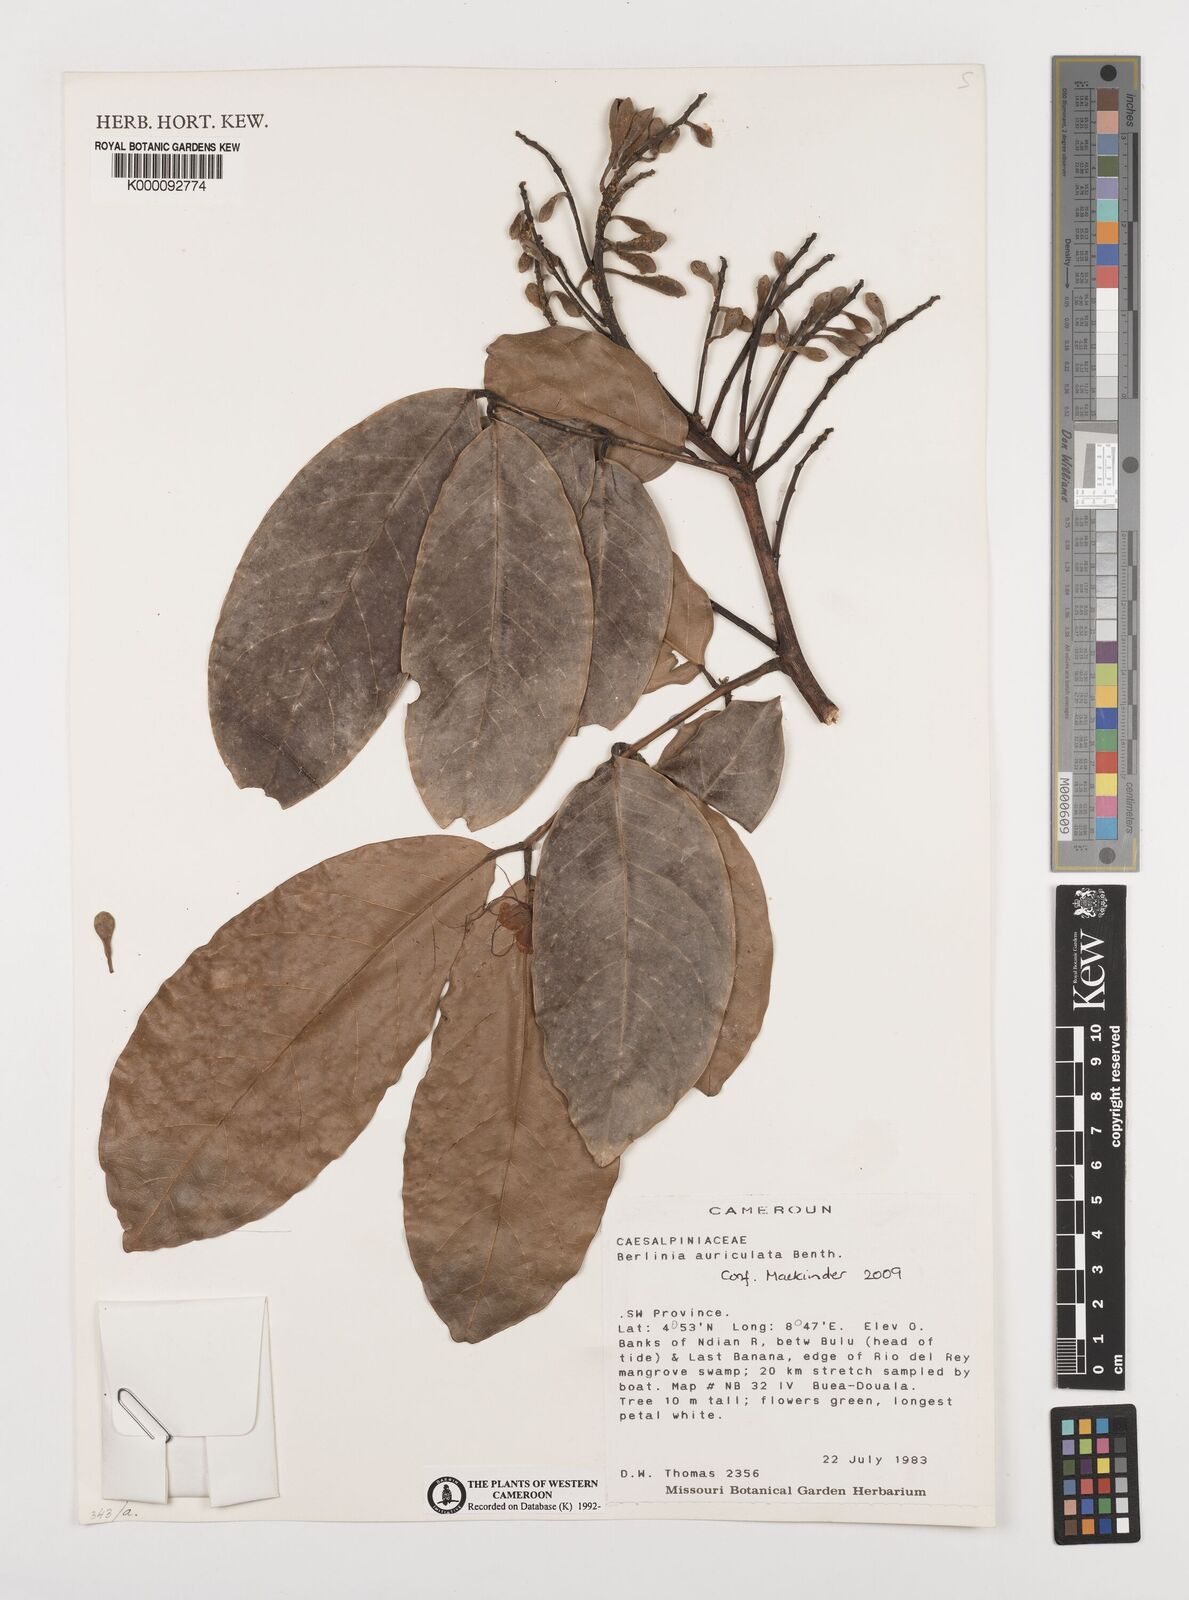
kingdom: Plantae
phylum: Tracheophyta
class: Magnoliopsida
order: Fabales
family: Fabaceae
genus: Berlinia
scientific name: Berlinia auriculata
